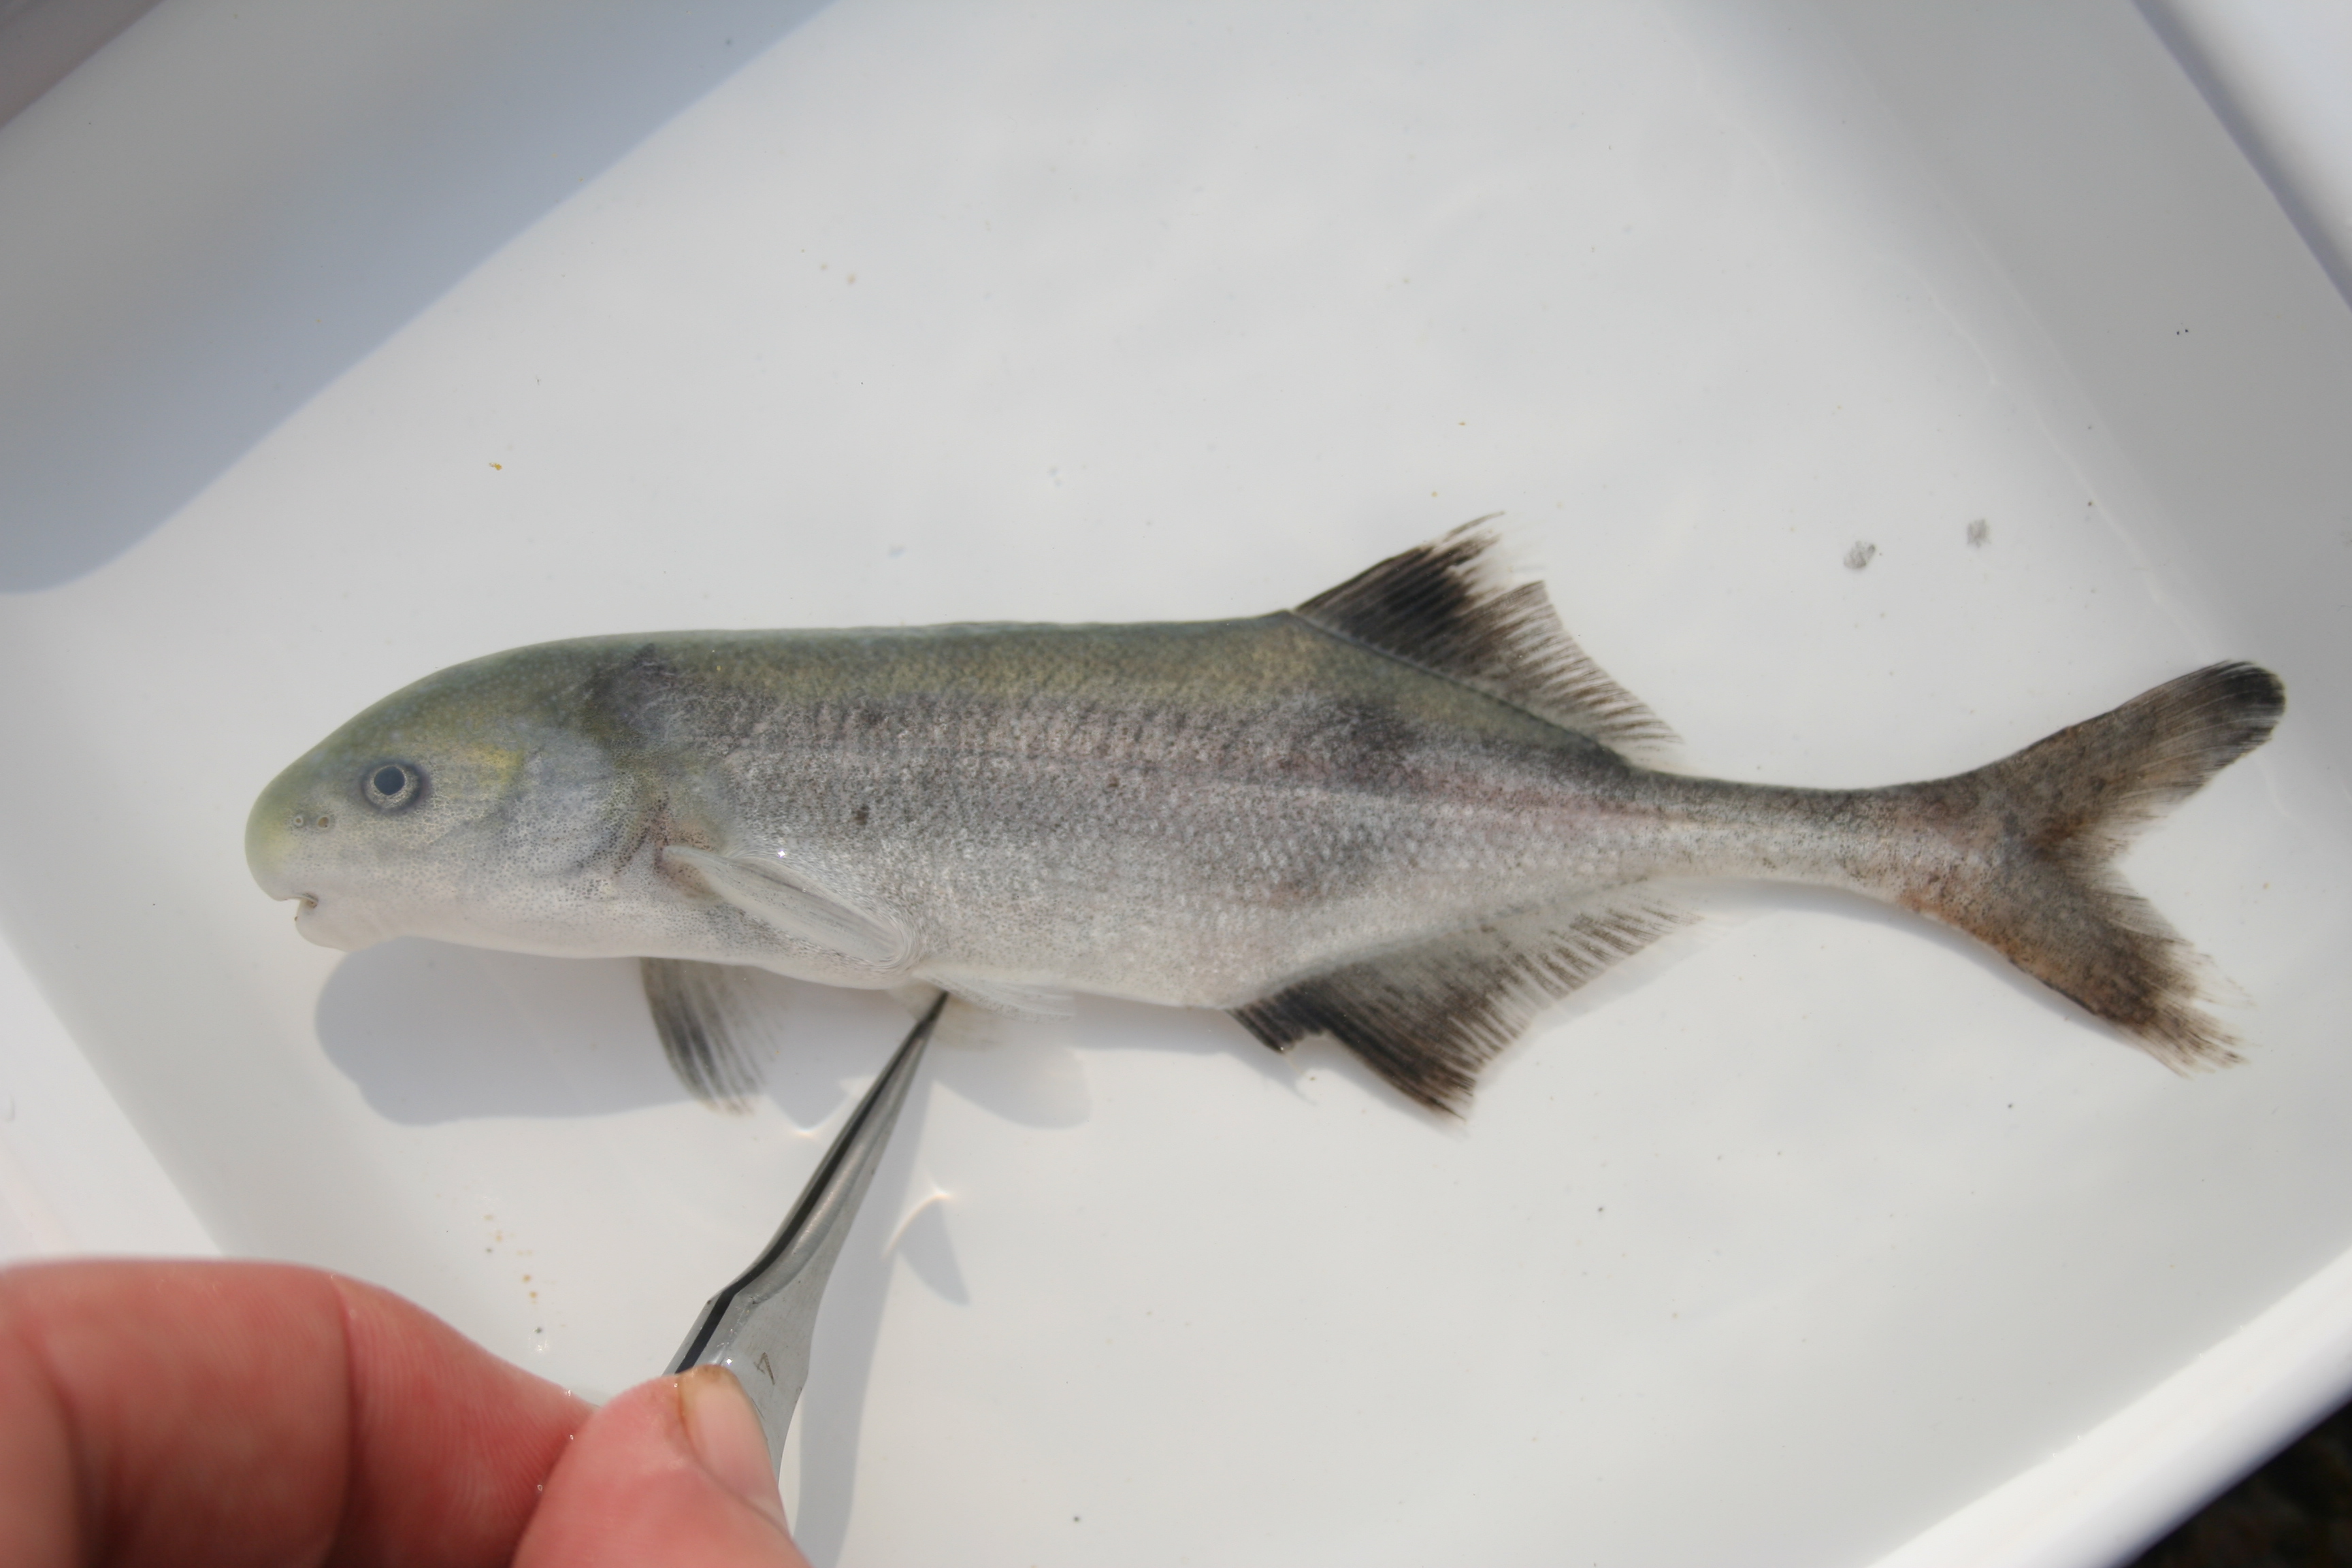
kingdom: Animalia
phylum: Chordata
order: Osteoglossiformes
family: Mormyridae
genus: Hippopotamyrus
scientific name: Hippopotamyrus
